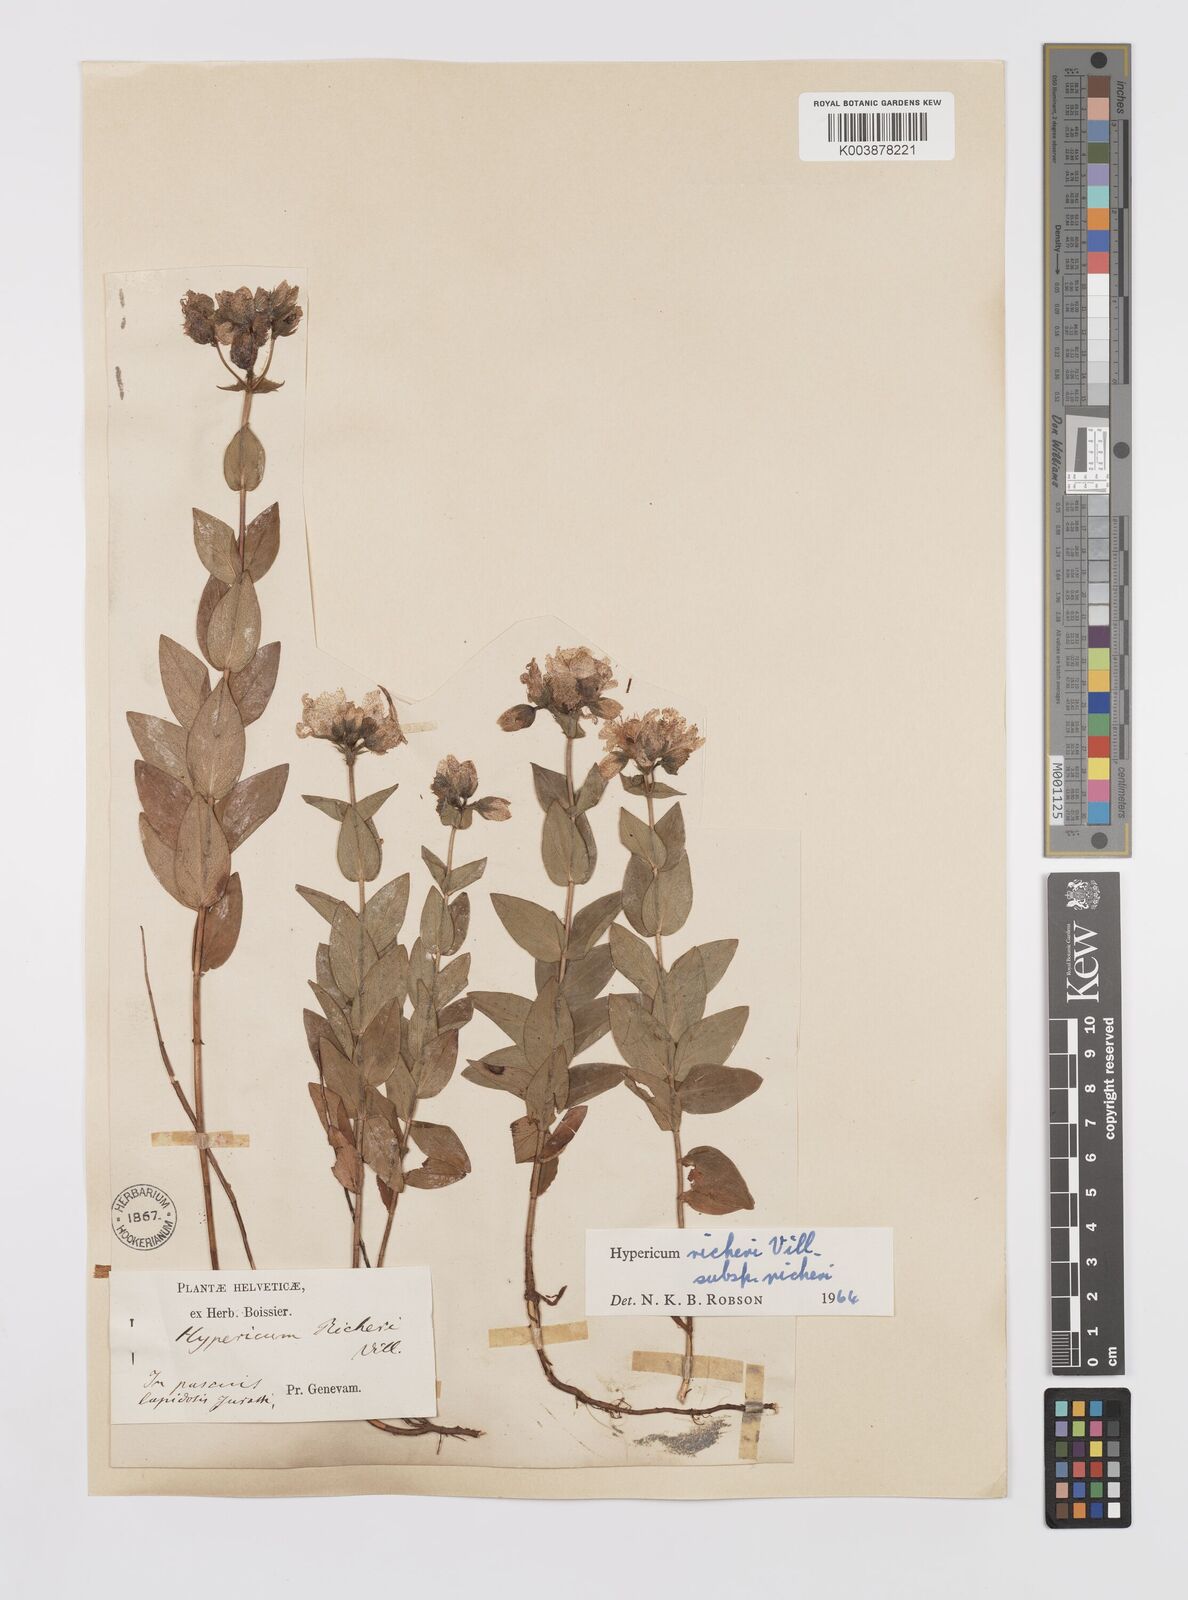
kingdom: Plantae
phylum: Tracheophyta
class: Magnoliopsida
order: Malpighiales
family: Hypericaceae
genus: Hypericum
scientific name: Hypericum richeri
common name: Alpine st john's-wort
